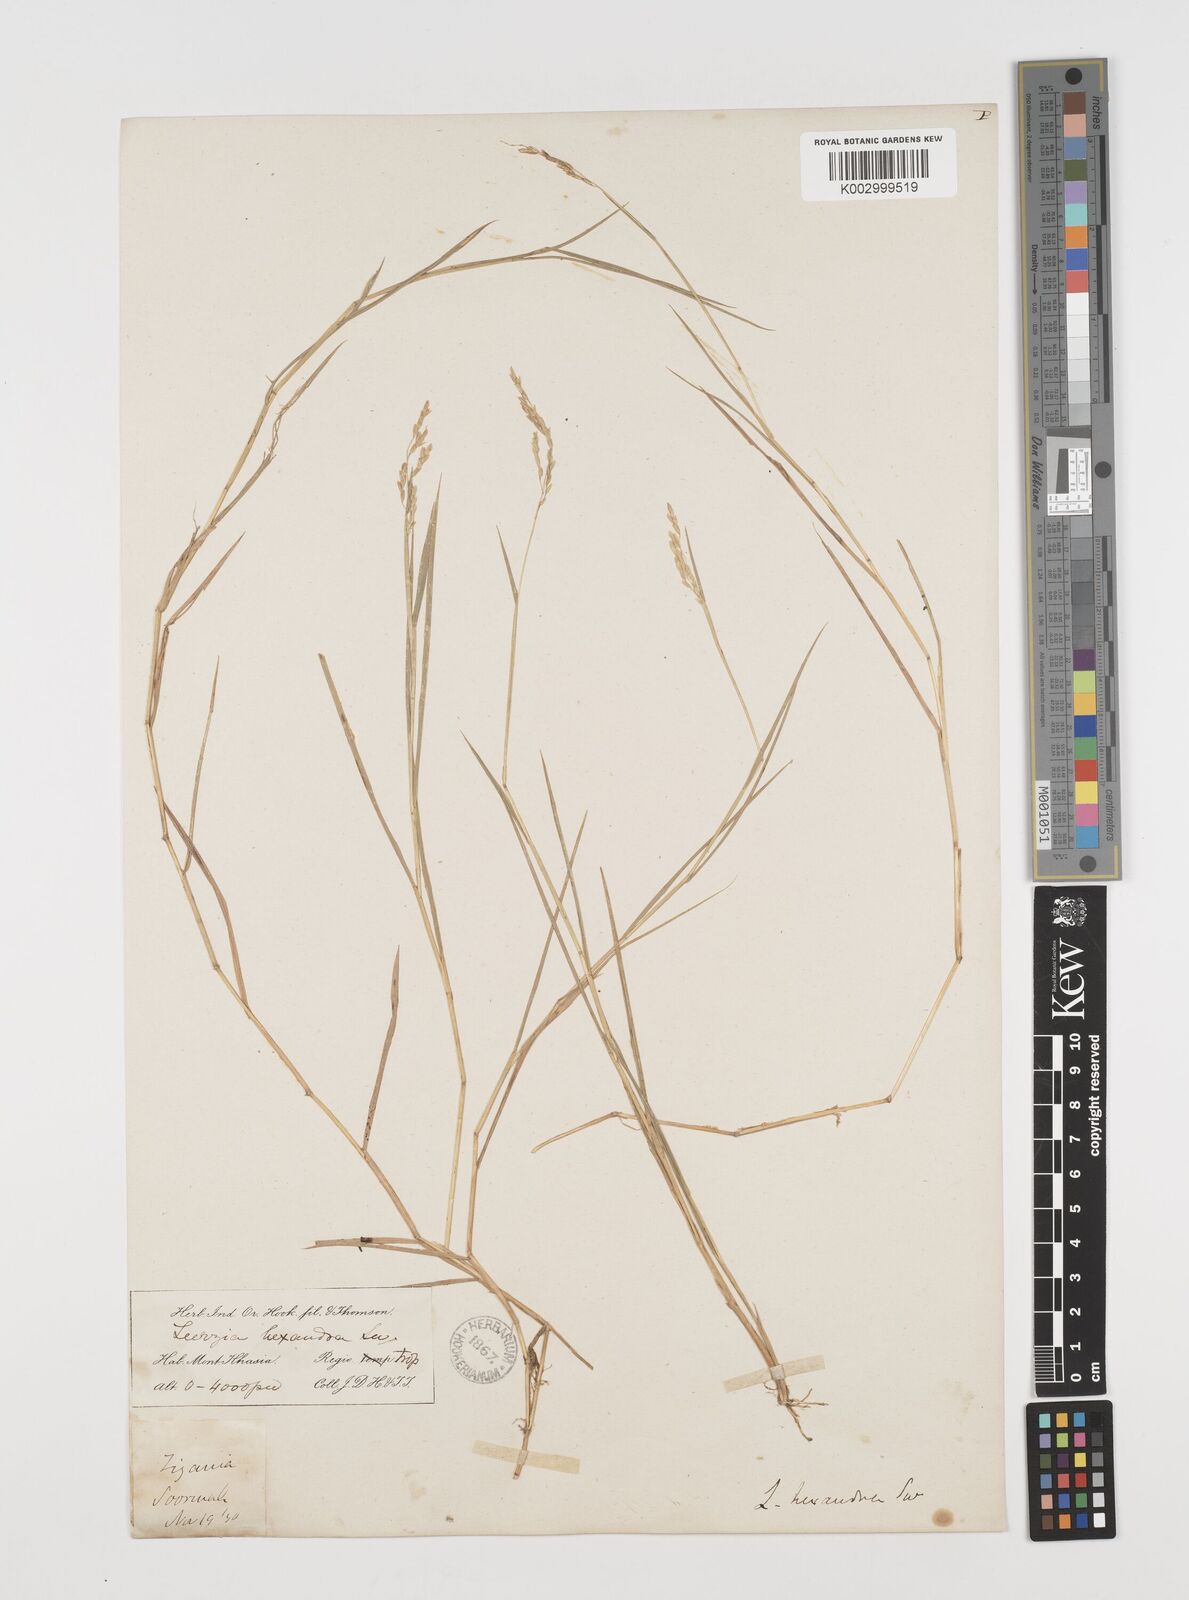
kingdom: Plantae
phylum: Tracheophyta
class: Liliopsida
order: Poales
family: Poaceae
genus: Leersia
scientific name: Leersia hexandra
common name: Southern cut grass
